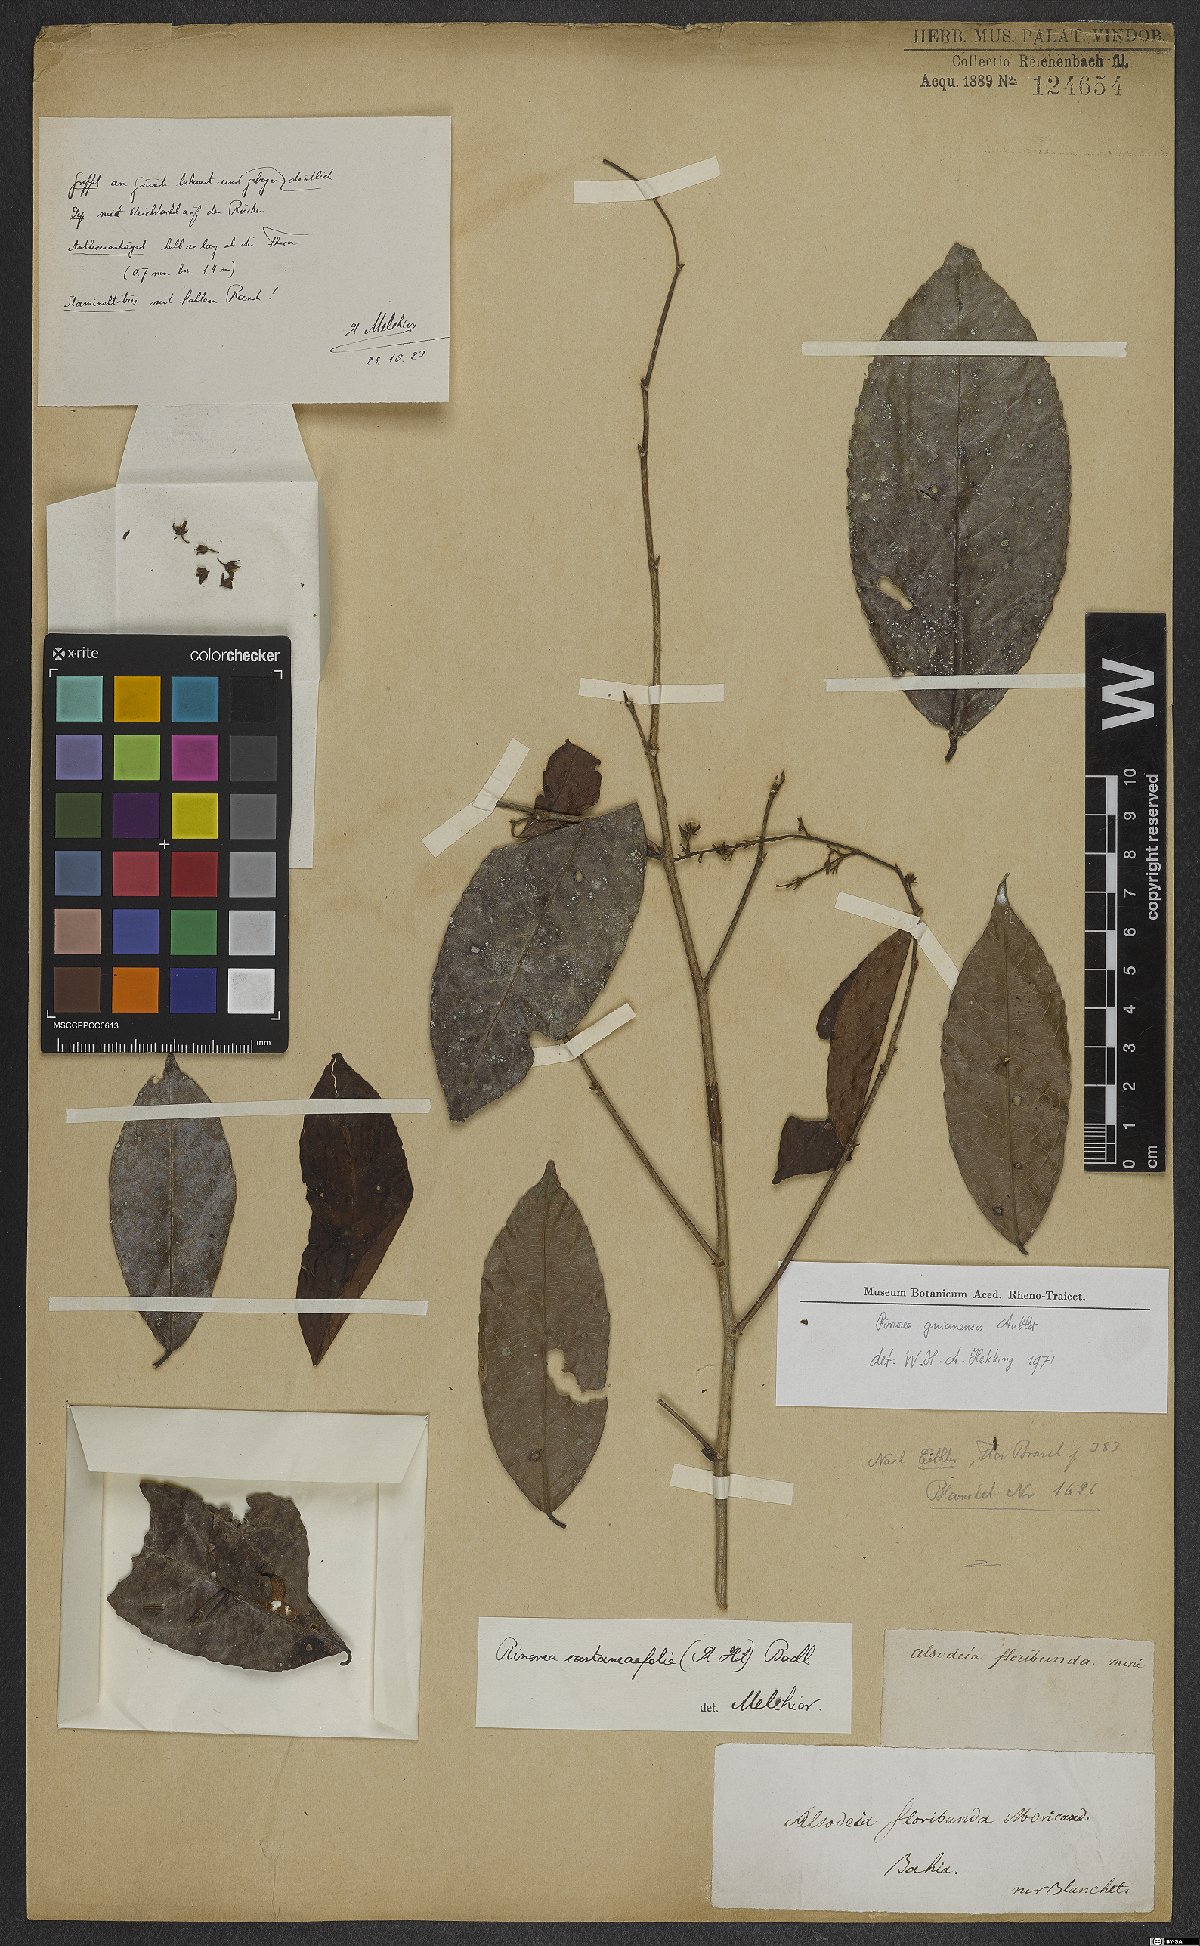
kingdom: Plantae
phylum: Tracheophyta
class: Magnoliopsida
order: Malpighiales
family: Violaceae
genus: Rinorea
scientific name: Rinorea guianensis
